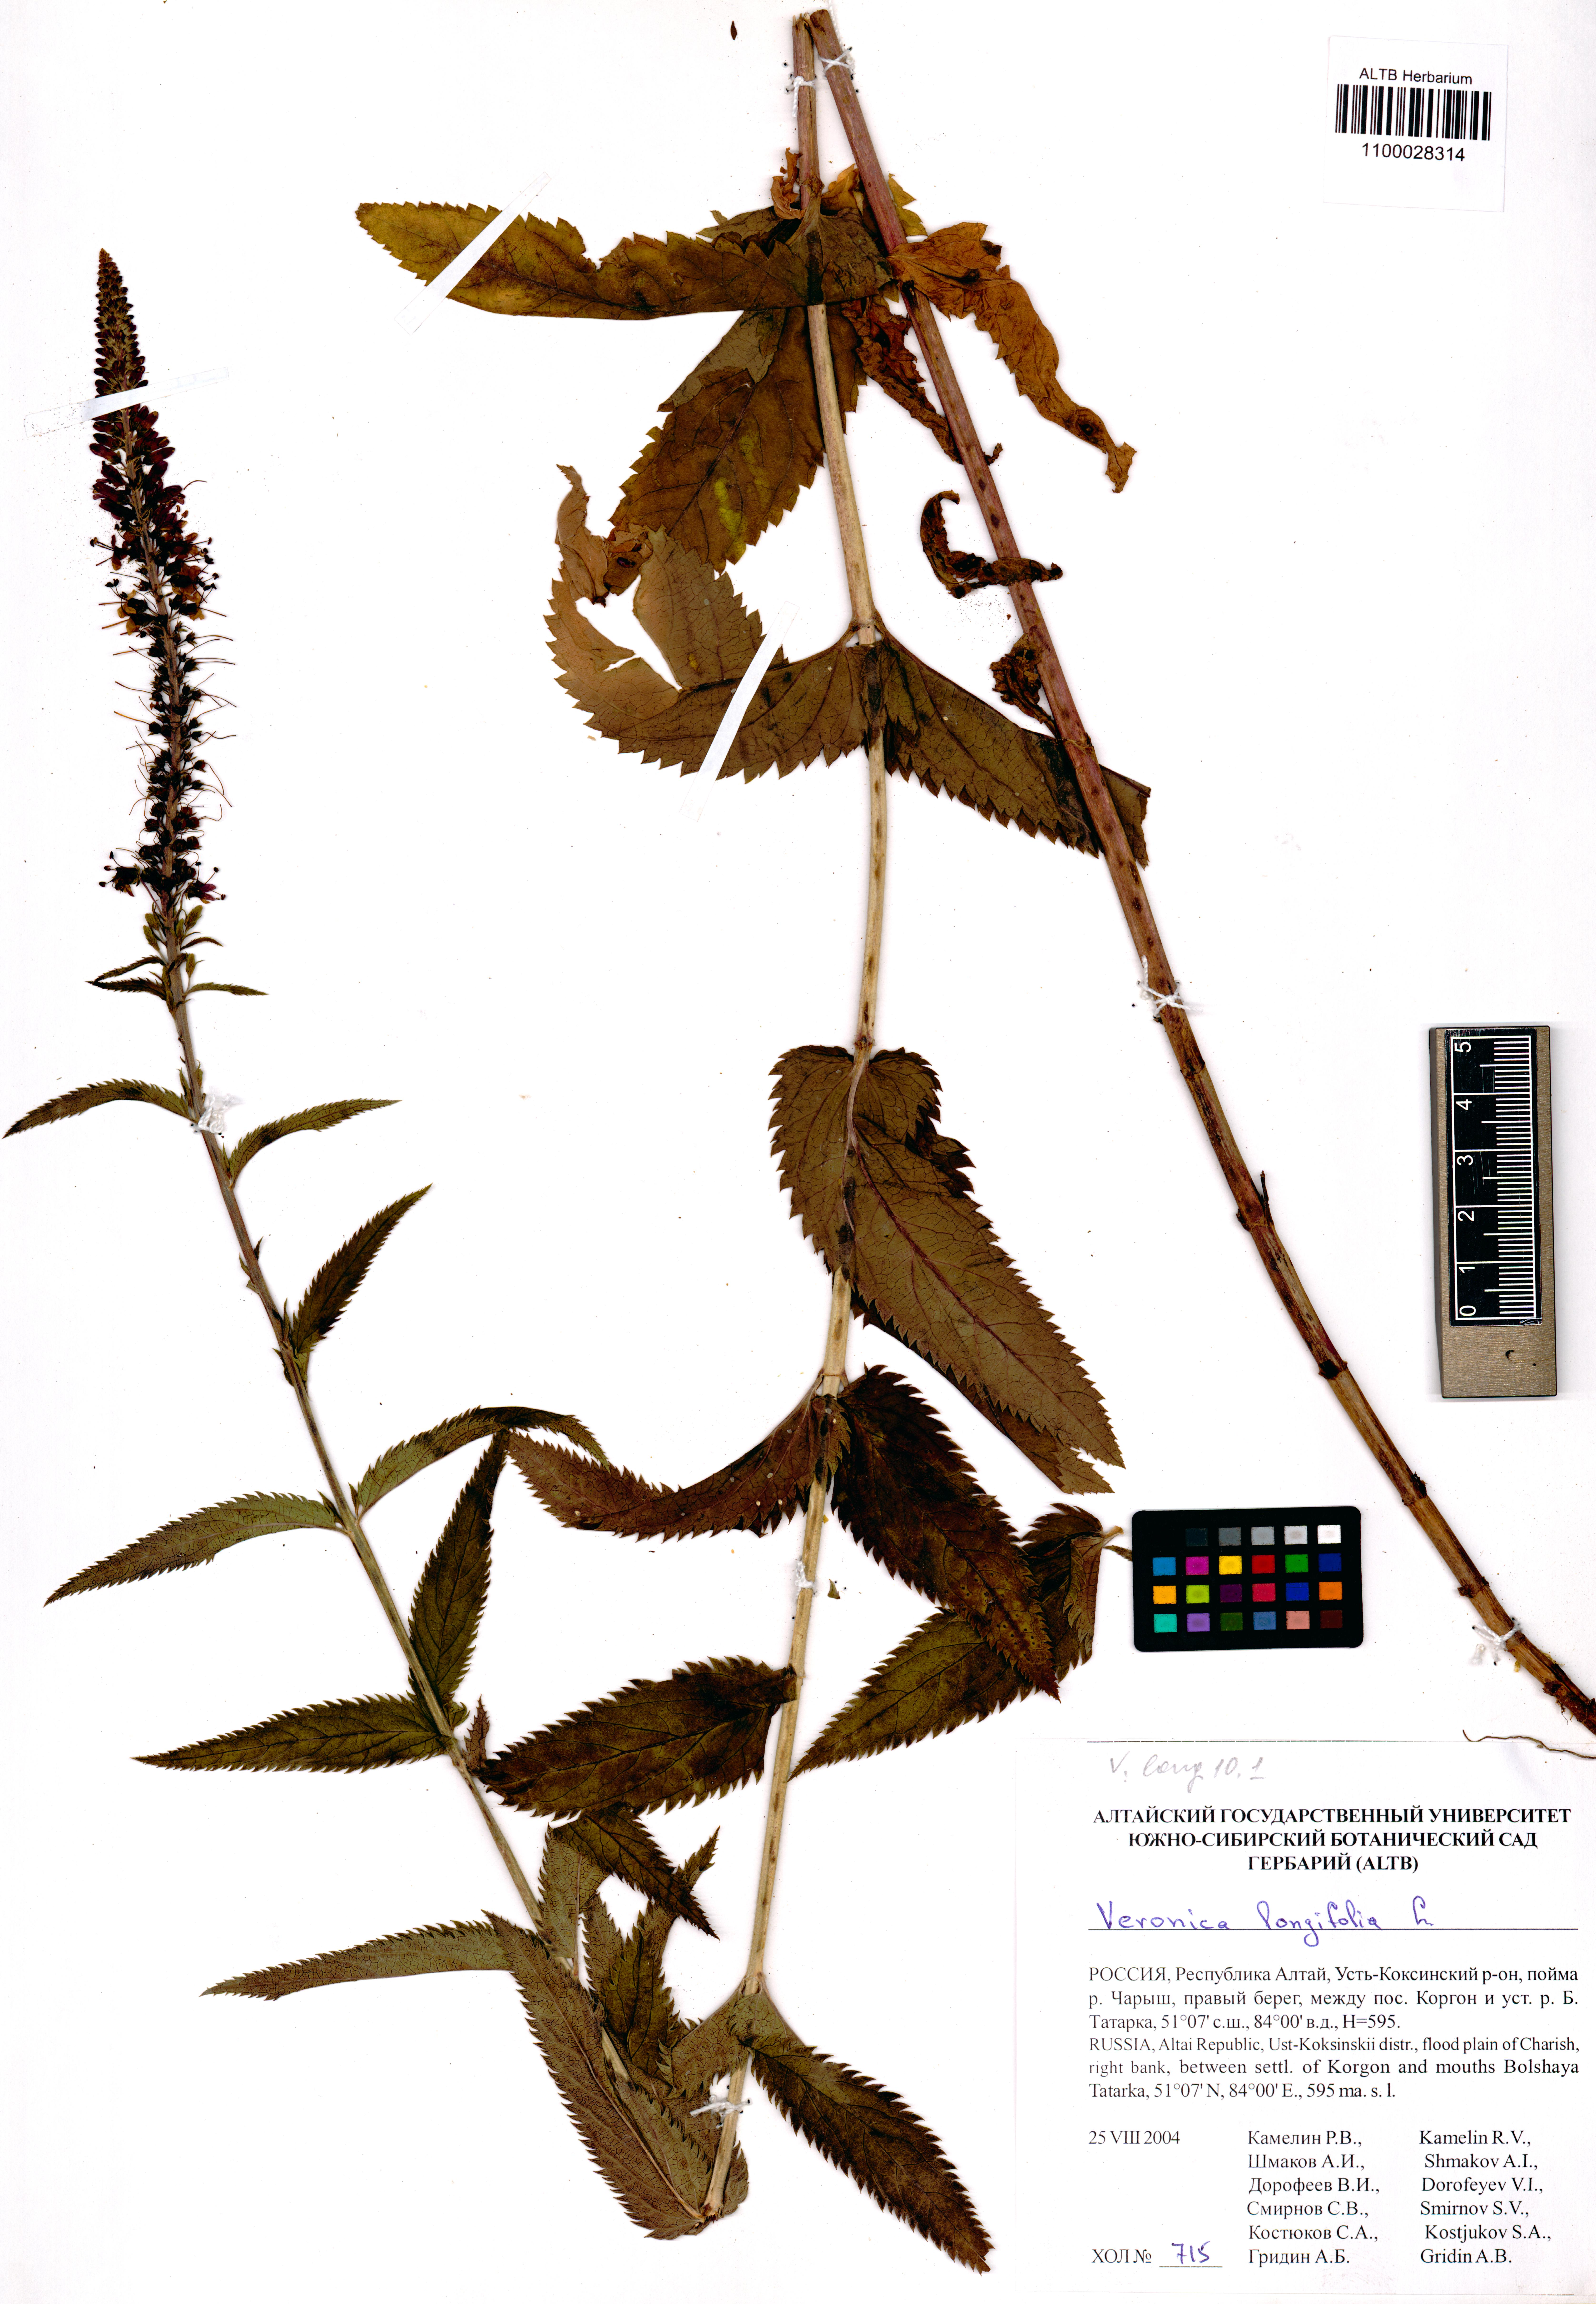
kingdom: Plantae
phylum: Tracheophyta
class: Magnoliopsida
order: Lamiales
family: Plantaginaceae
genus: Veronica
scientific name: Veronica longifolia
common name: Garden speedwell
